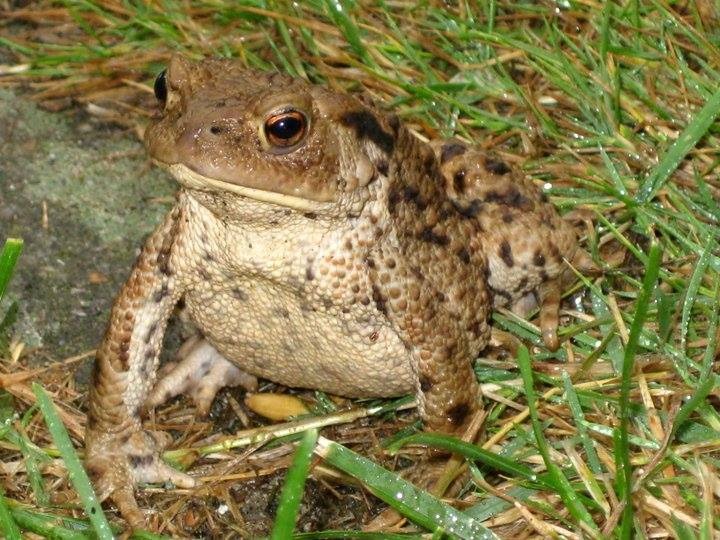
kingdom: Animalia
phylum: Chordata
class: Amphibia
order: Anura
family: Bufonidae
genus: Bufo
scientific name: Bufo bufo
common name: Skrubtudse
